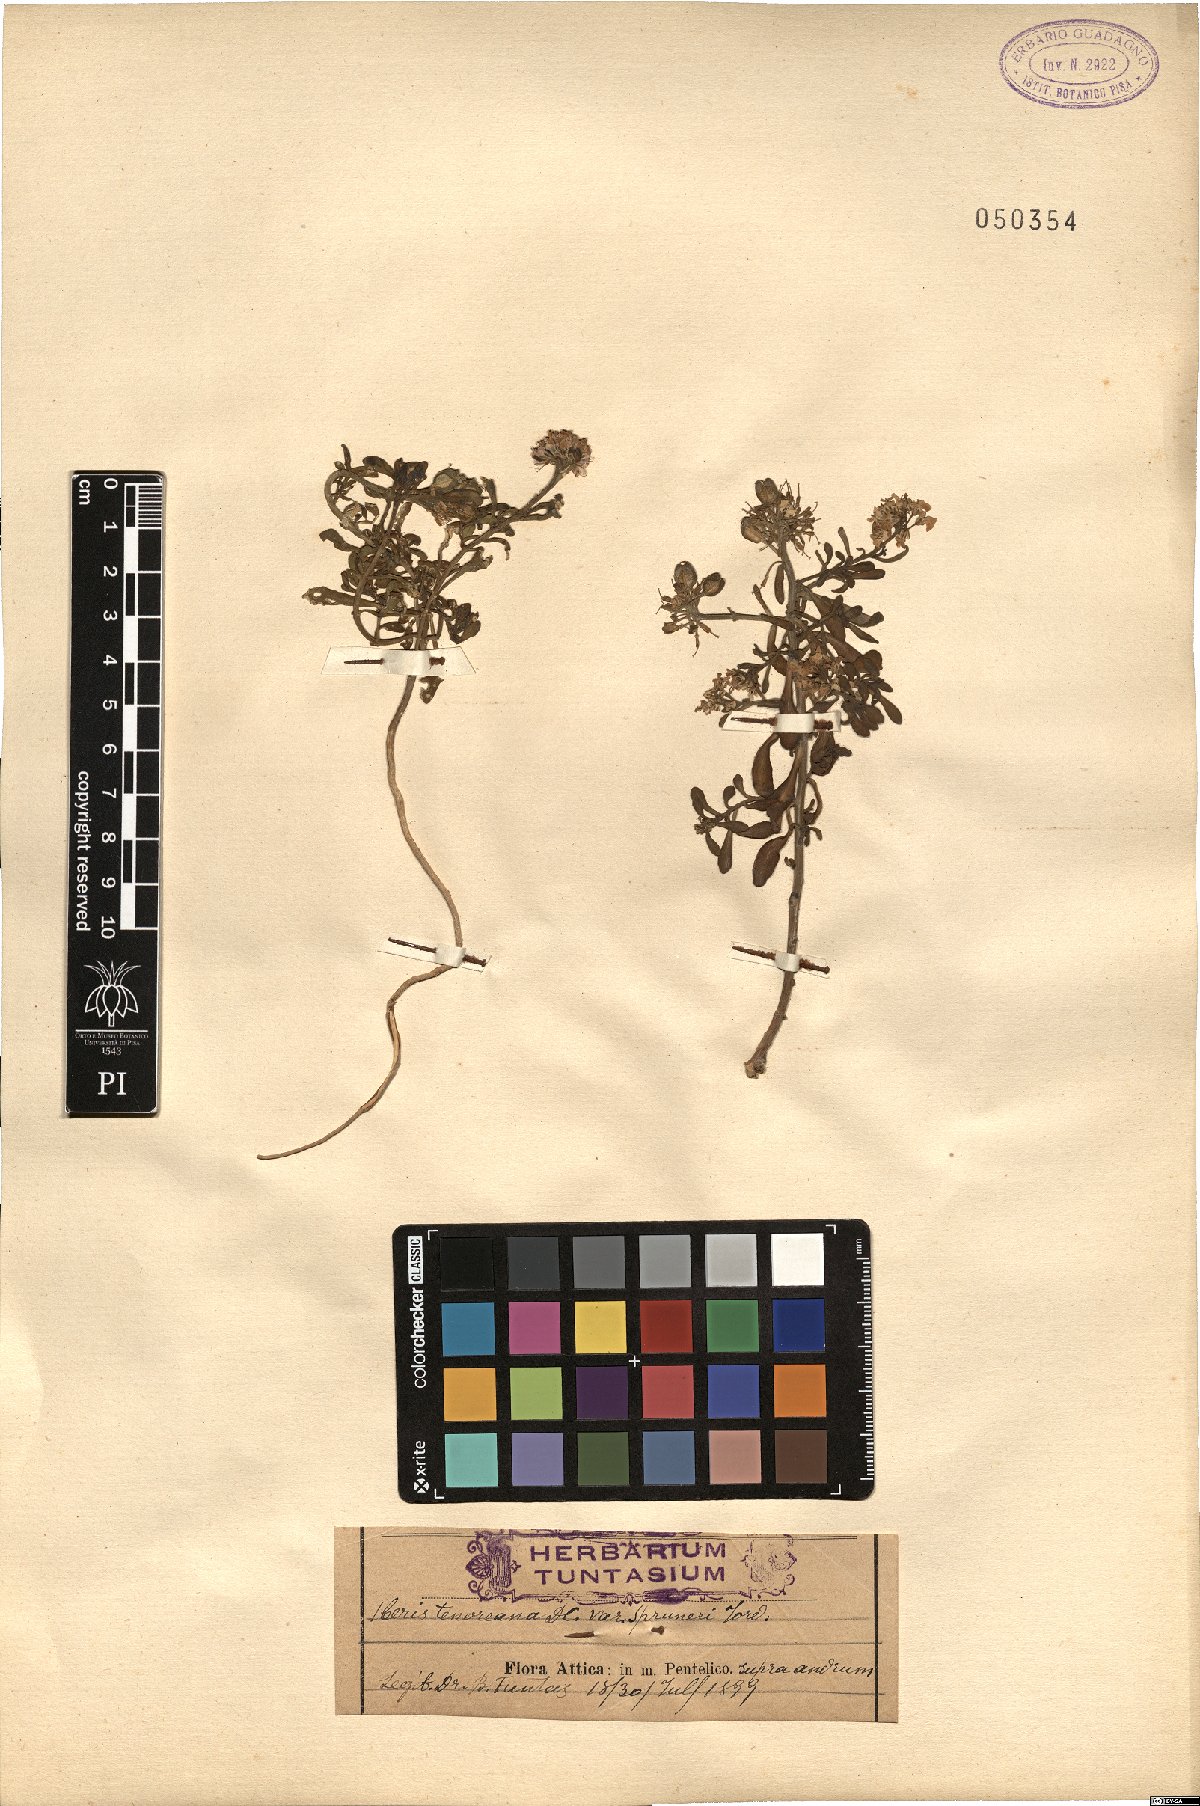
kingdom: Plantae
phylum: Tracheophyta
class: Magnoliopsida
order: Brassicales
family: Brassicaceae
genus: Iberis
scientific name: Iberis carnosa
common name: Pruit's candytuft
